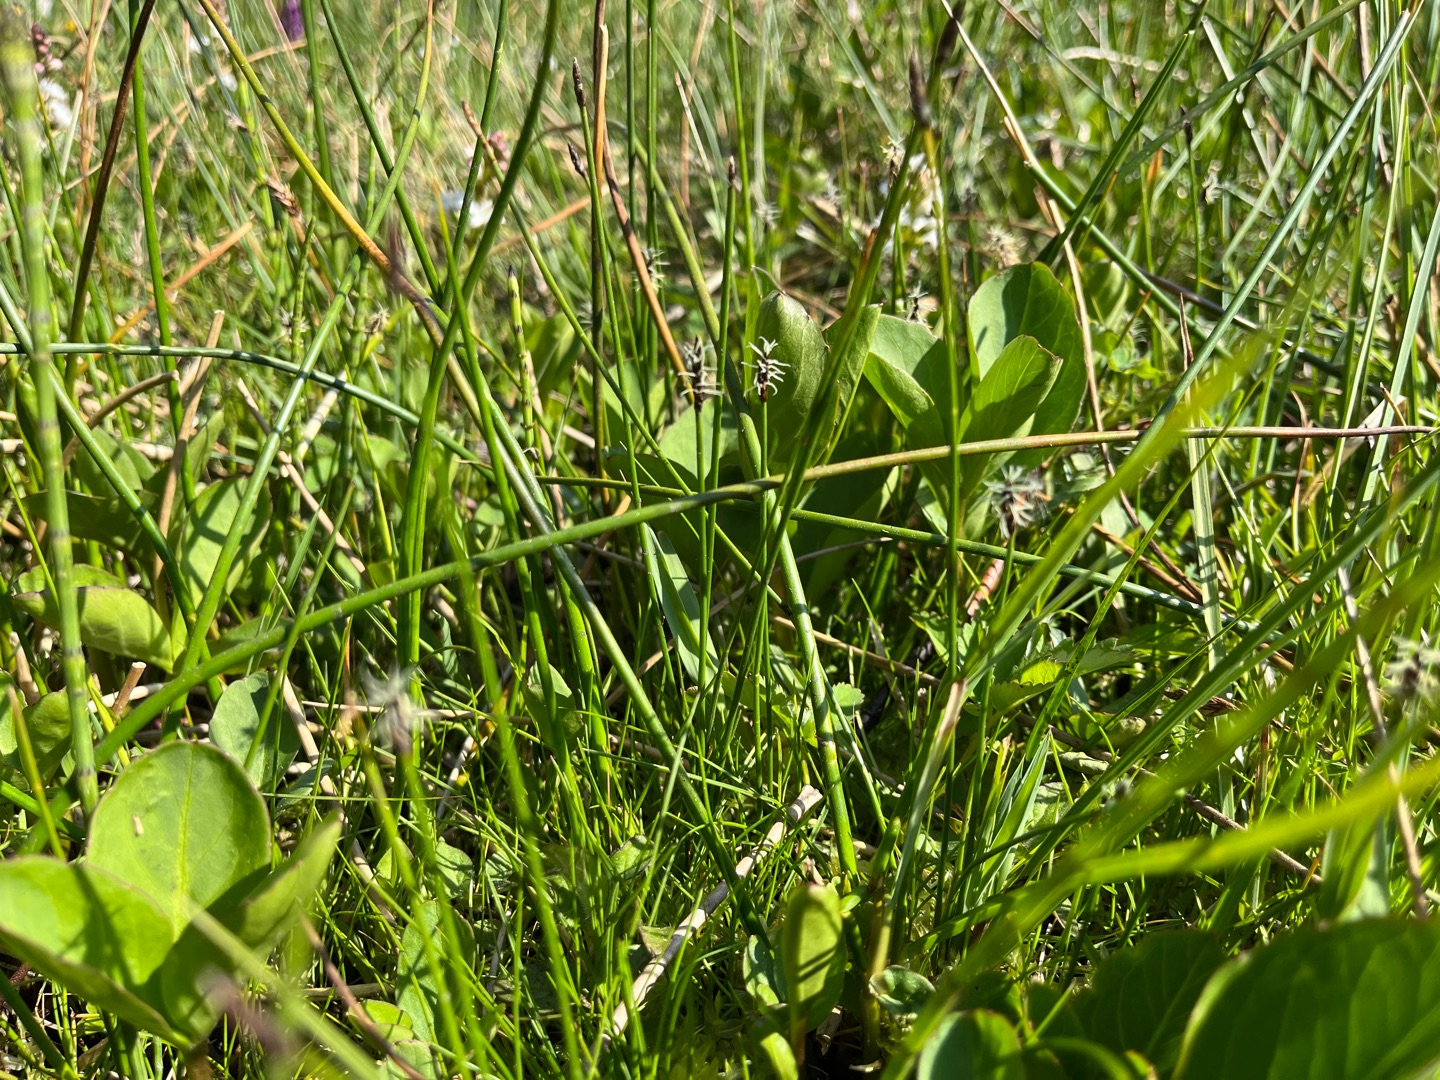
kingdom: Plantae
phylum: Tracheophyta
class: Liliopsida
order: Poales
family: Cyperaceae
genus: Eleocharis
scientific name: Eleocharis uniglumis
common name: Enskællet sumpstrå
